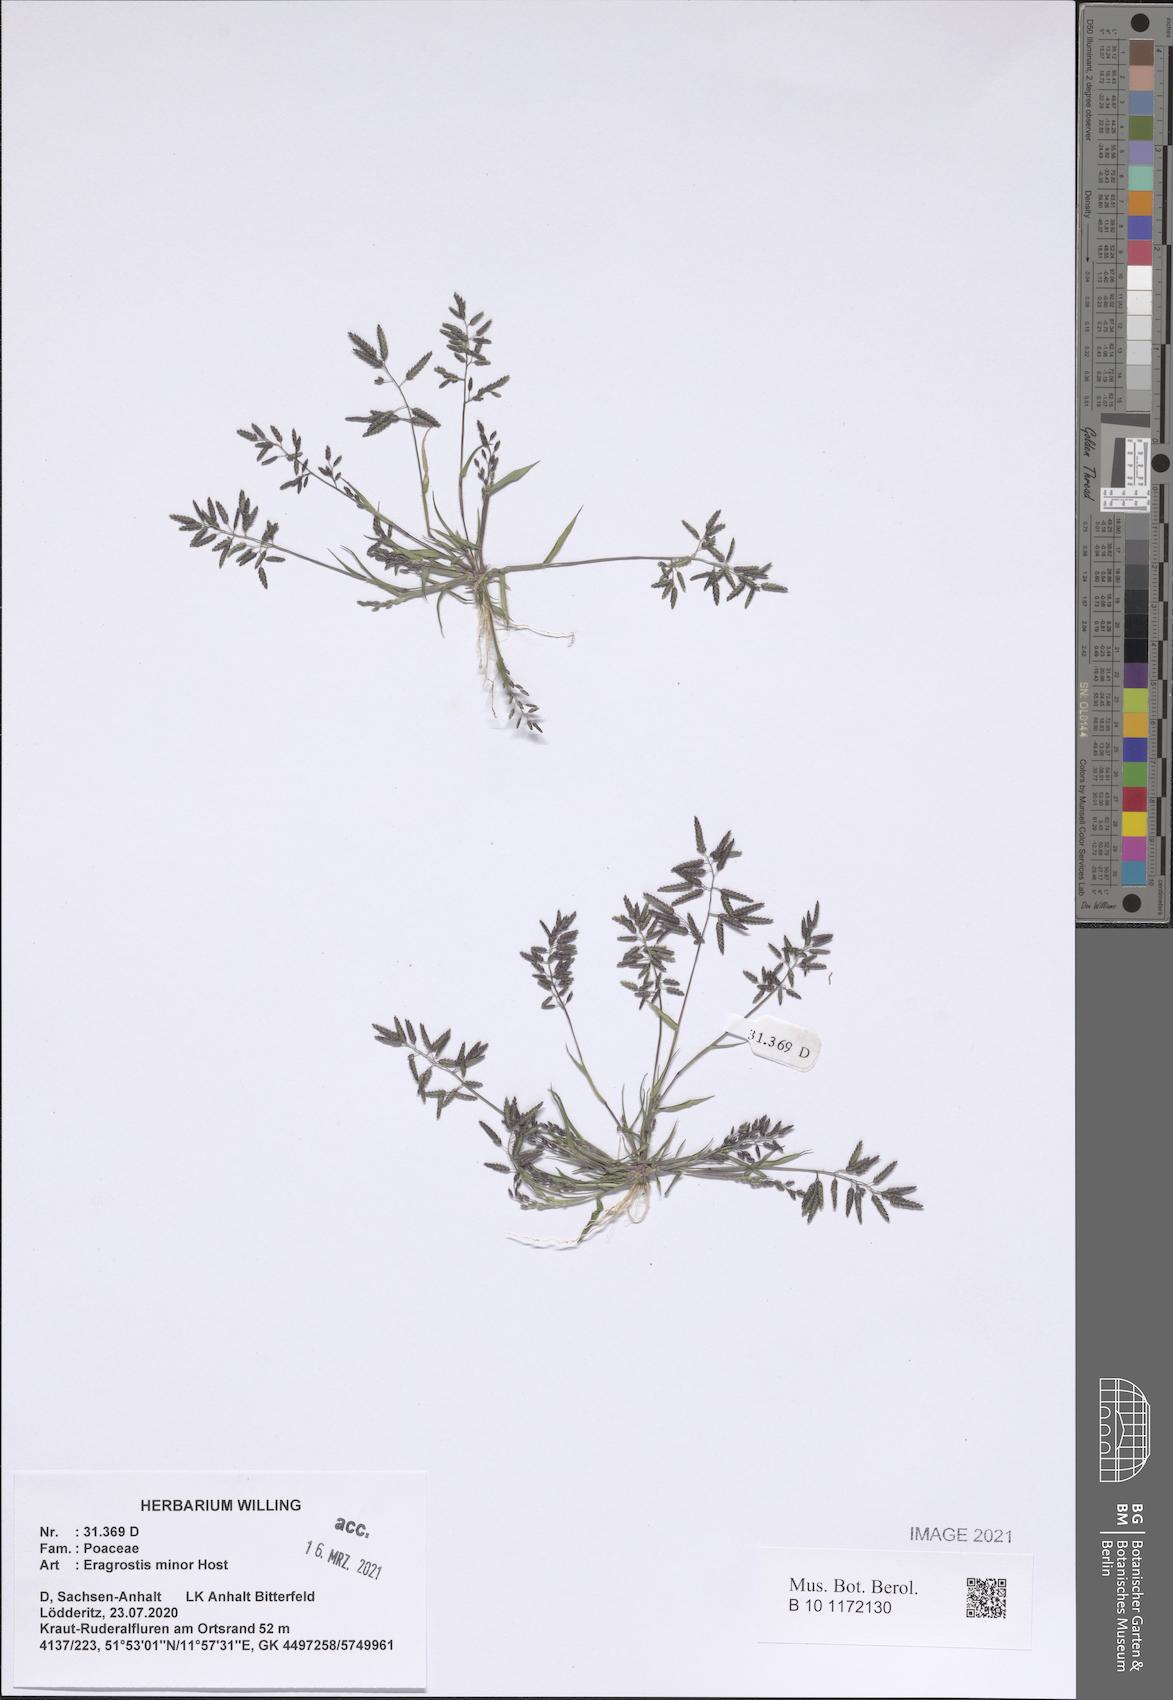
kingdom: Plantae
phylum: Tracheophyta
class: Liliopsida
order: Poales
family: Poaceae
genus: Eragrostis
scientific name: Eragrostis minor
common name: Small love-grass
